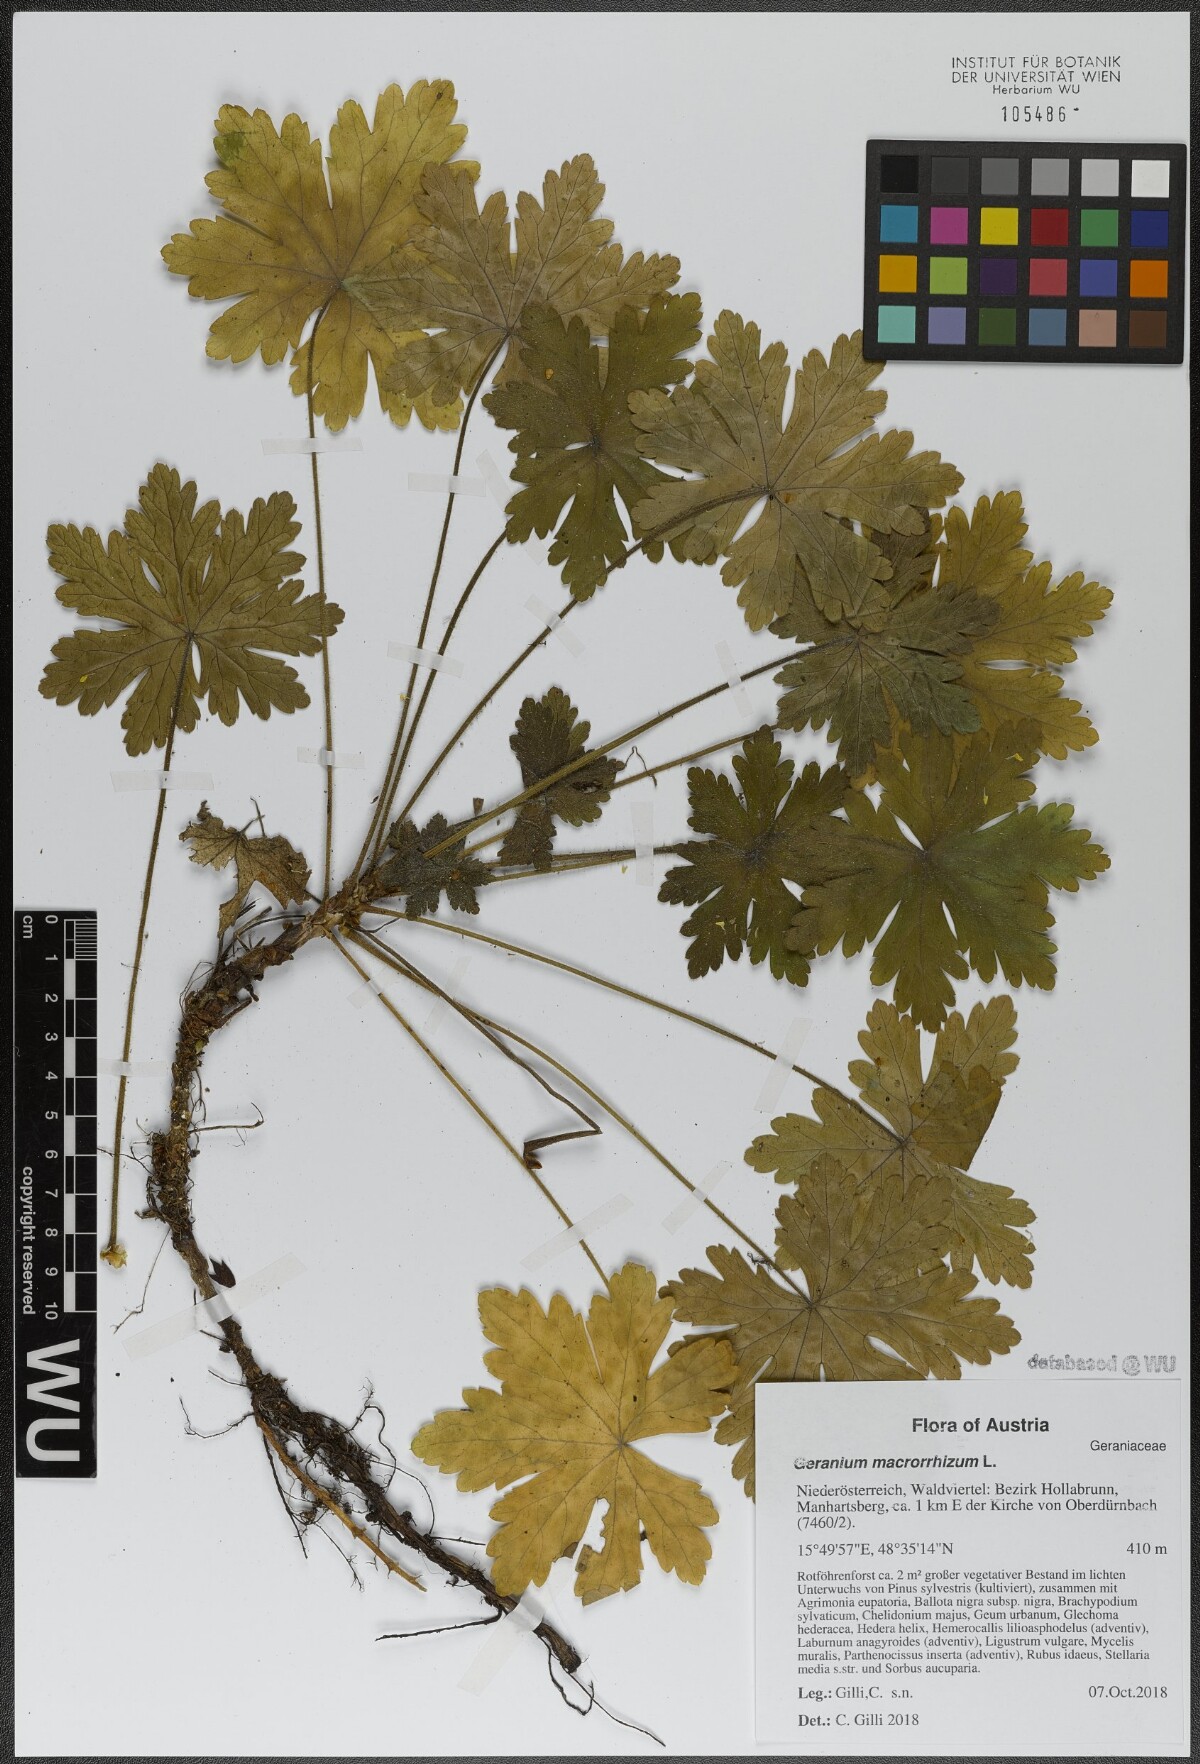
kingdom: Plantae
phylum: Tracheophyta
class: Magnoliopsida
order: Geraniales
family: Geraniaceae
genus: Geranium
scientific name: Geranium macrorrhizum
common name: Rock crane's-bill
